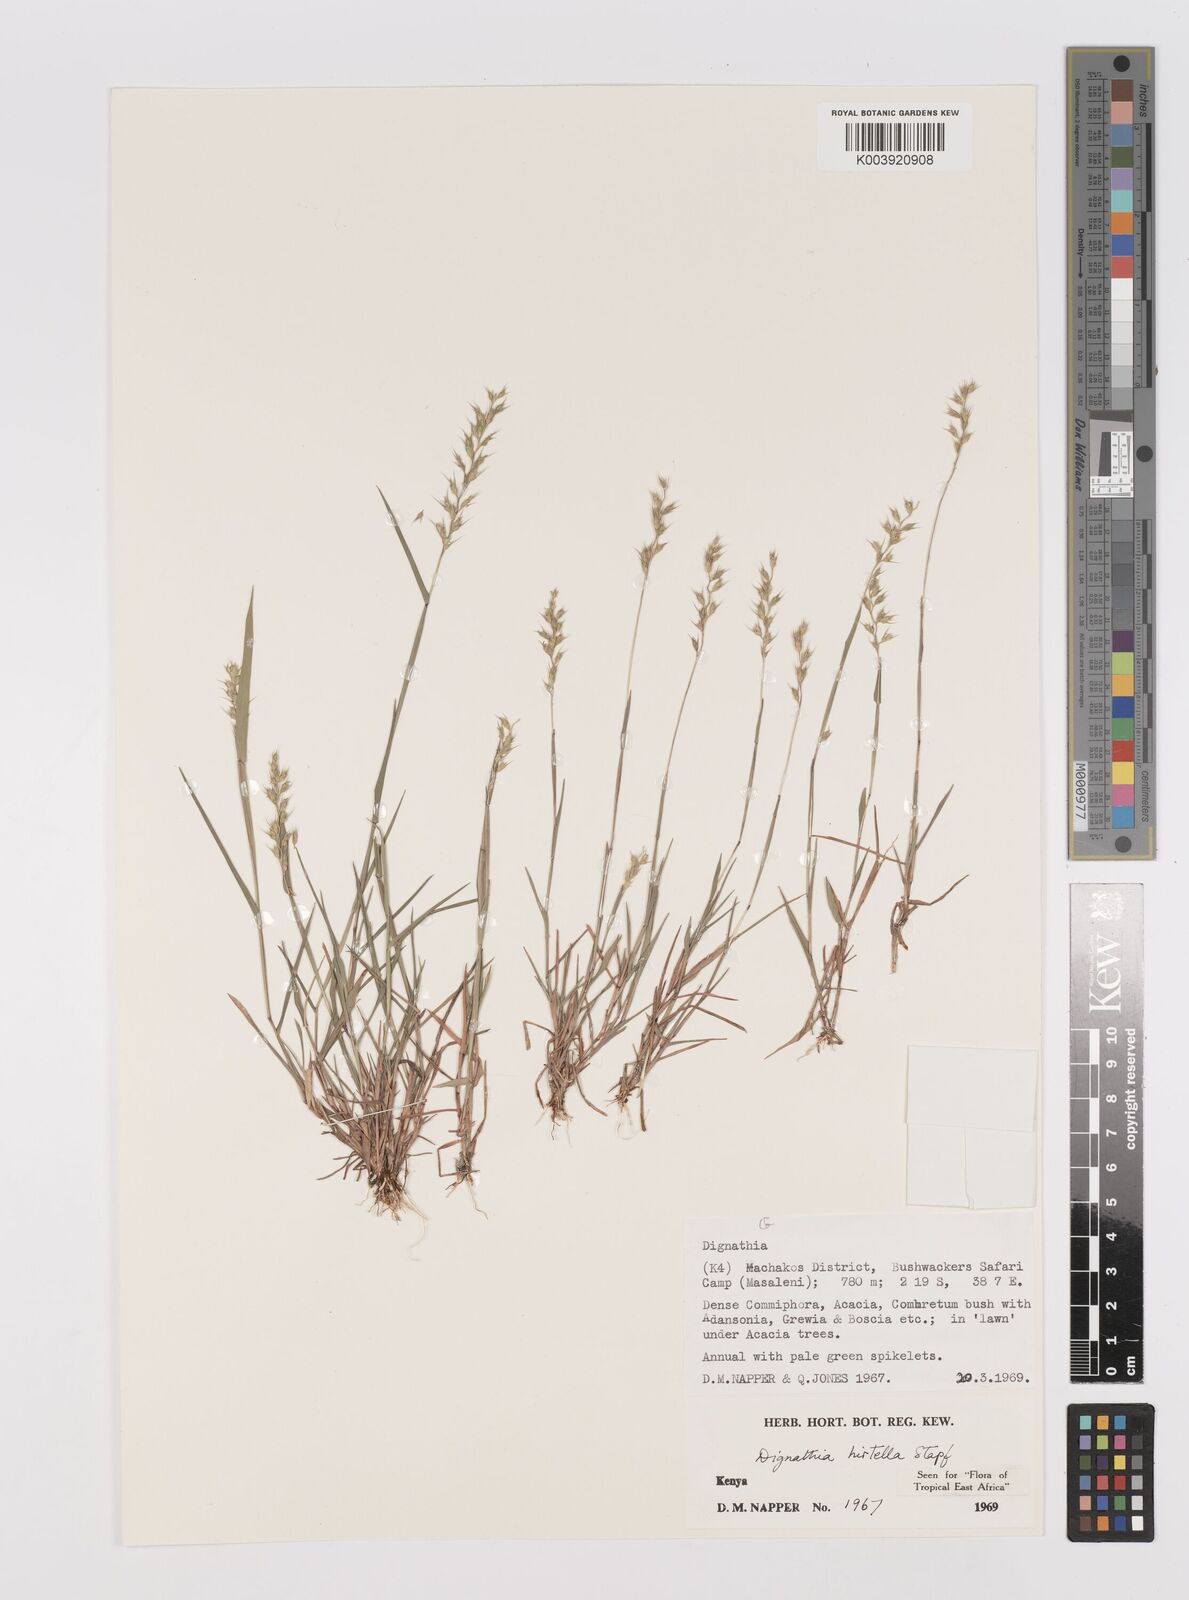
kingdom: Plantae
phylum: Tracheophyta
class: Liliopsida
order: Poales
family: Poaceae
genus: Dignathia
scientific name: Dignathia hirtella
